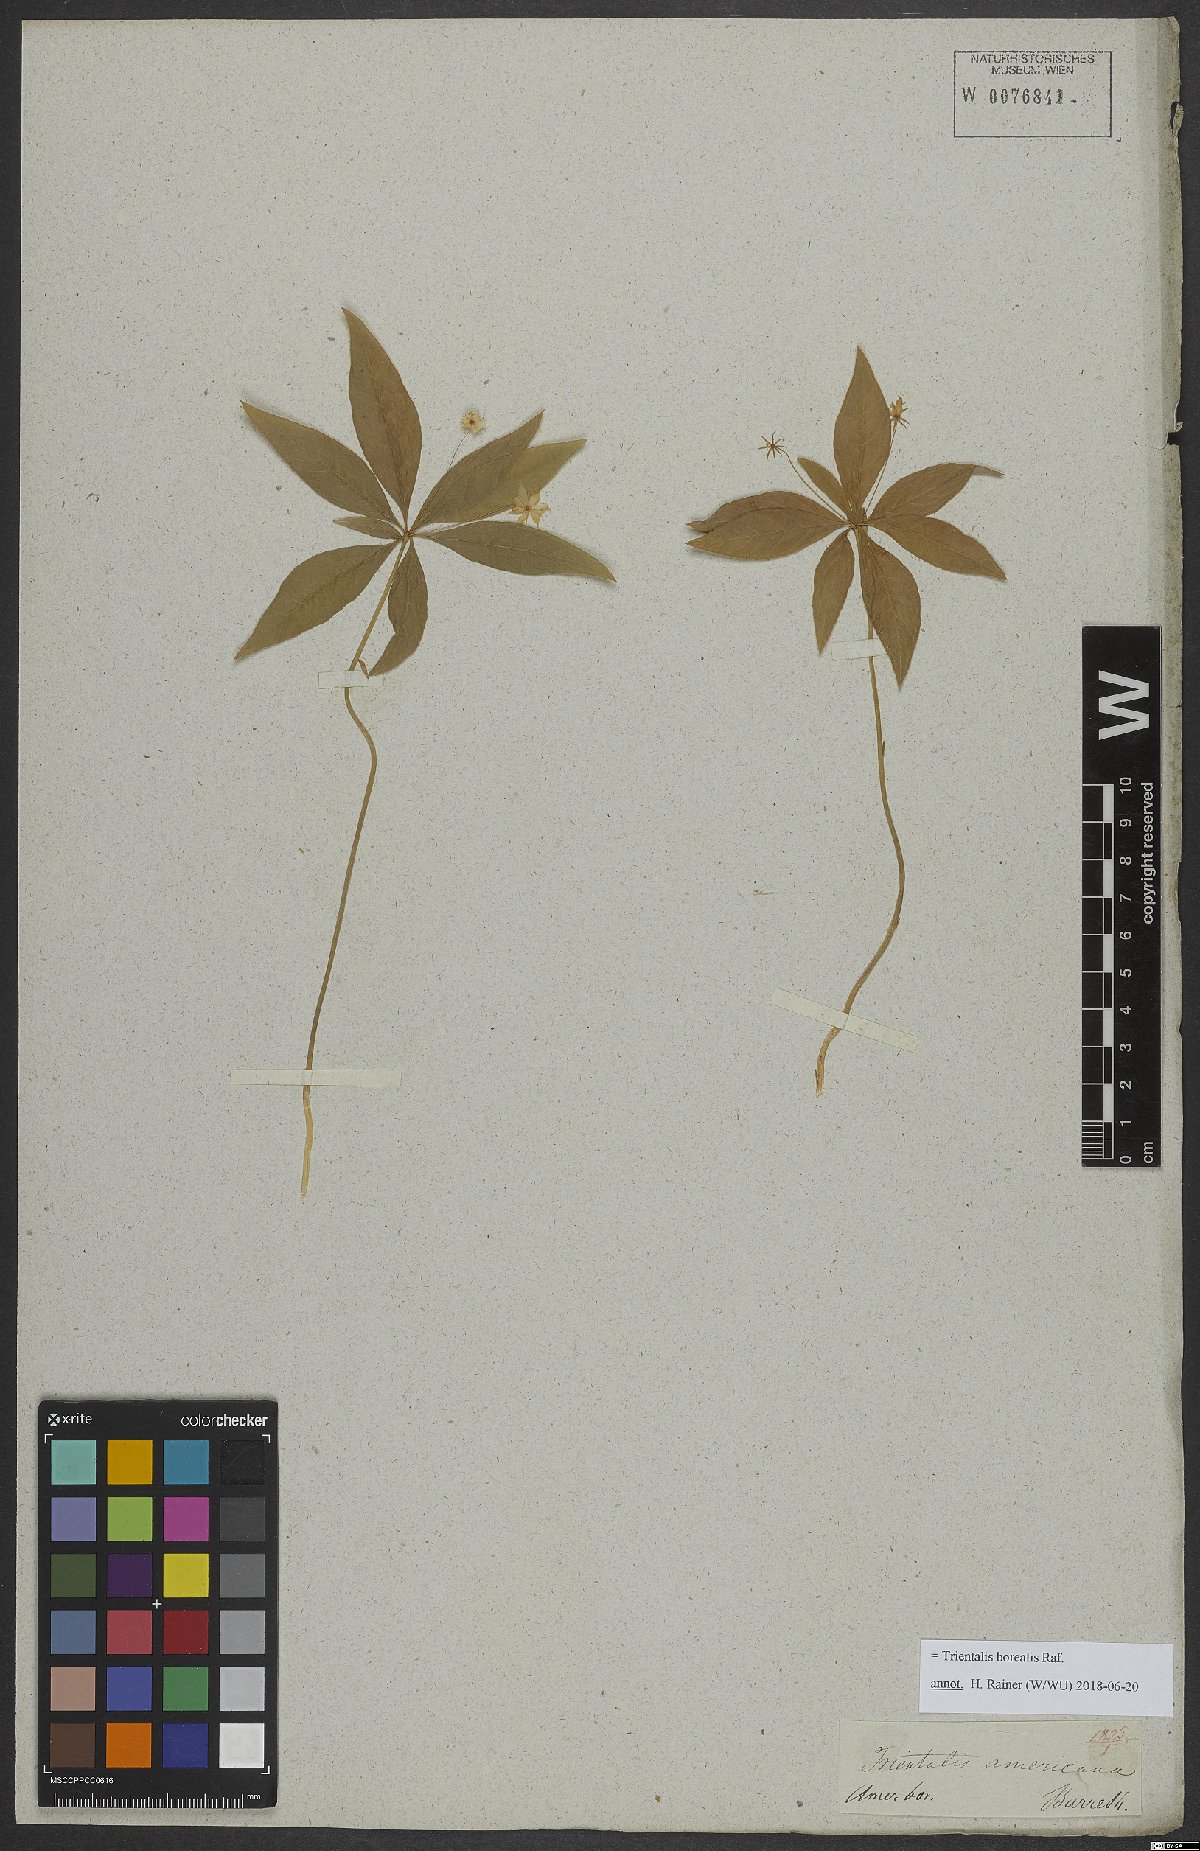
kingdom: Plantae
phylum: Tracheophyta
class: Magnoliopsida
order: Ericales
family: Primulaceae
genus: Lysimachia
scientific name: Lysimachia borealis
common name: American starflower
